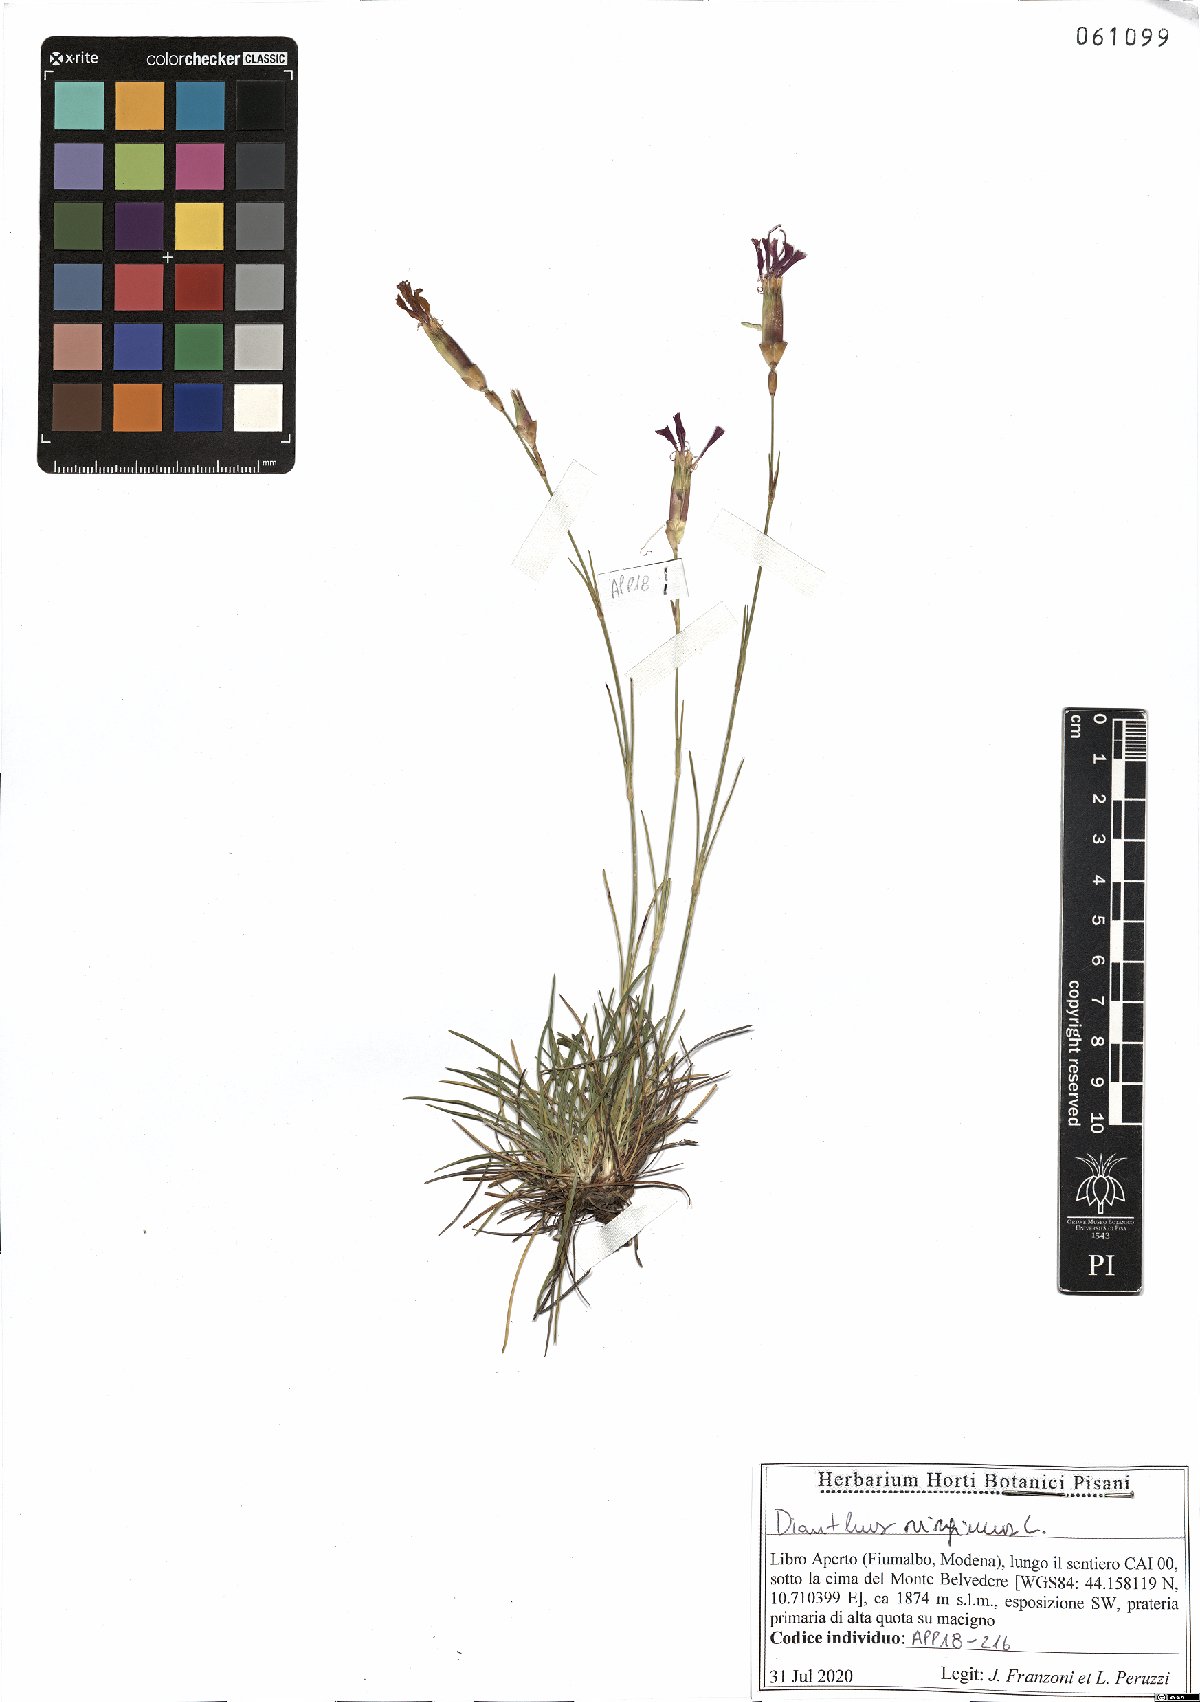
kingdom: Plantae
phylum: Tracheophyta
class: Magnoliopsida
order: Caryophyllales
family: Caryophyllaceae
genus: Dianthus
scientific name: Dianthus virgineus
